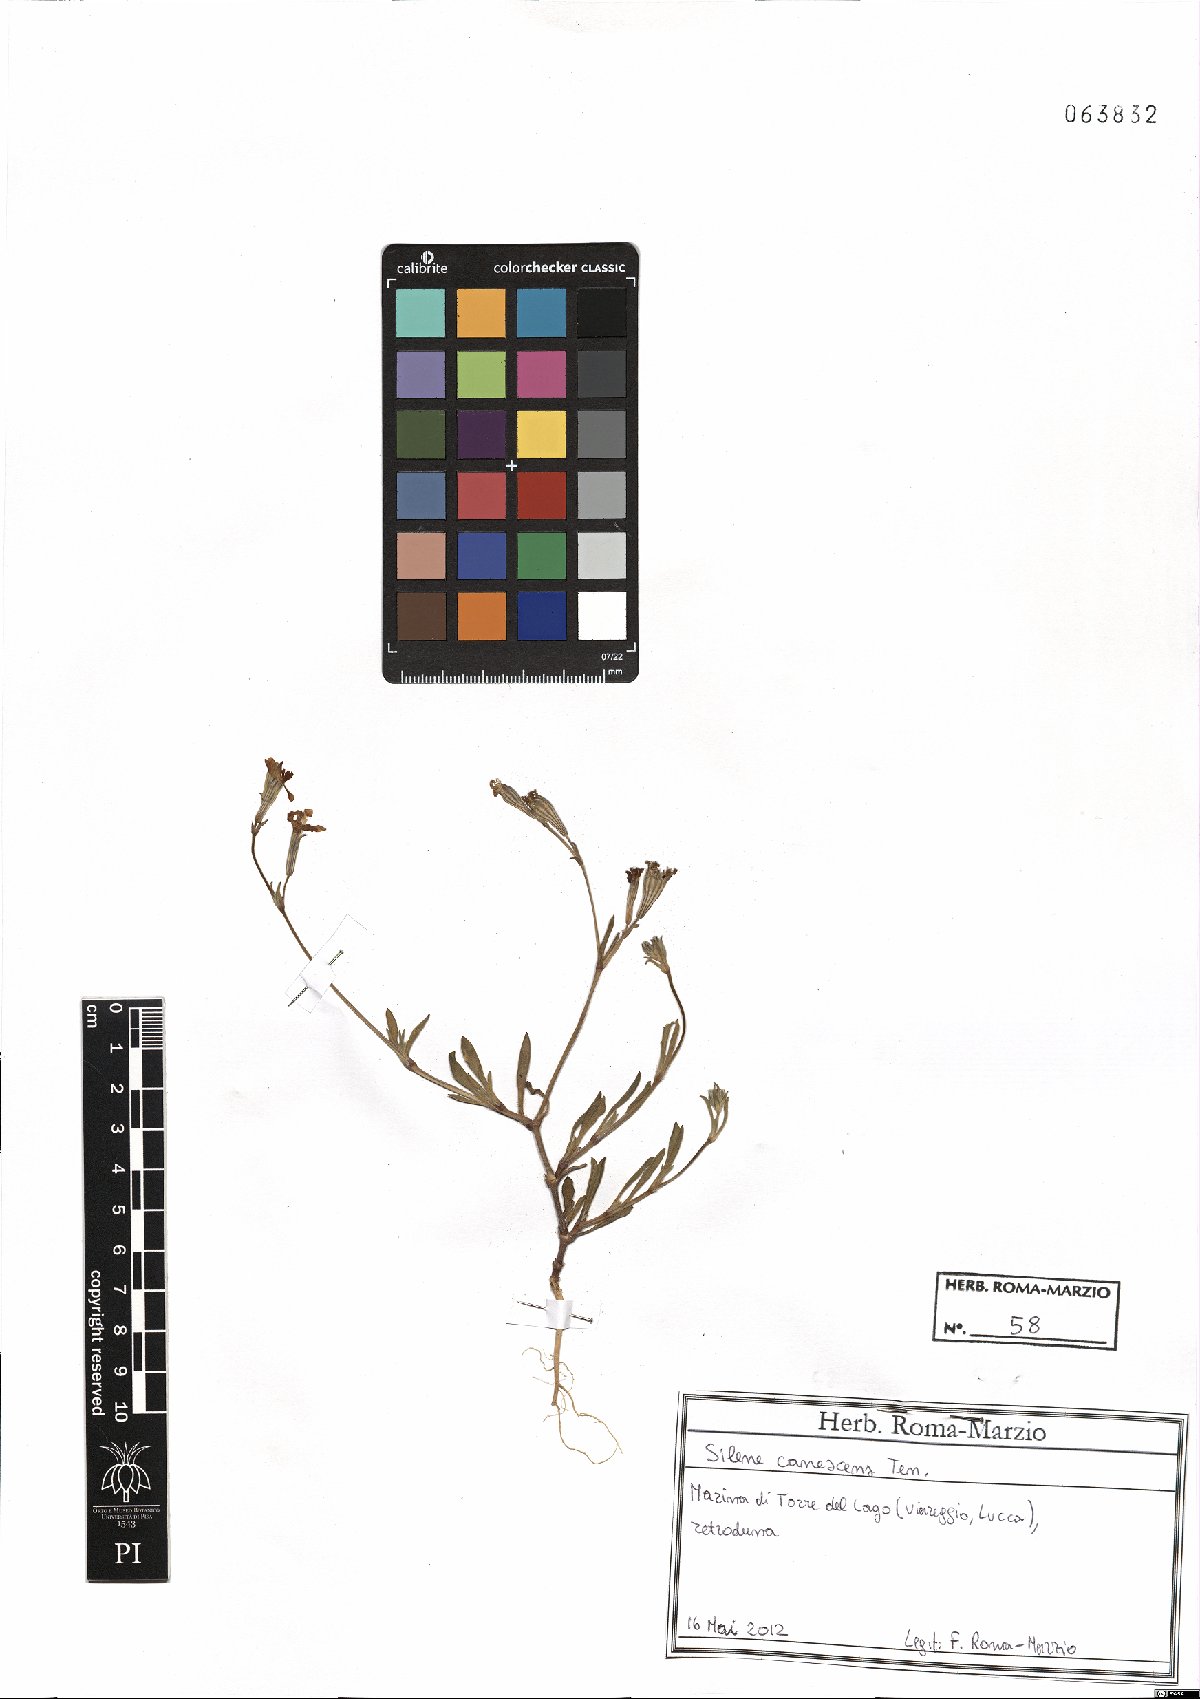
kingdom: Plantae
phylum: Tracheophyta
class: Magnoliopsida
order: Caryophyllales
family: Caryophyllaceae
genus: Silene
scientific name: Silene colorata
